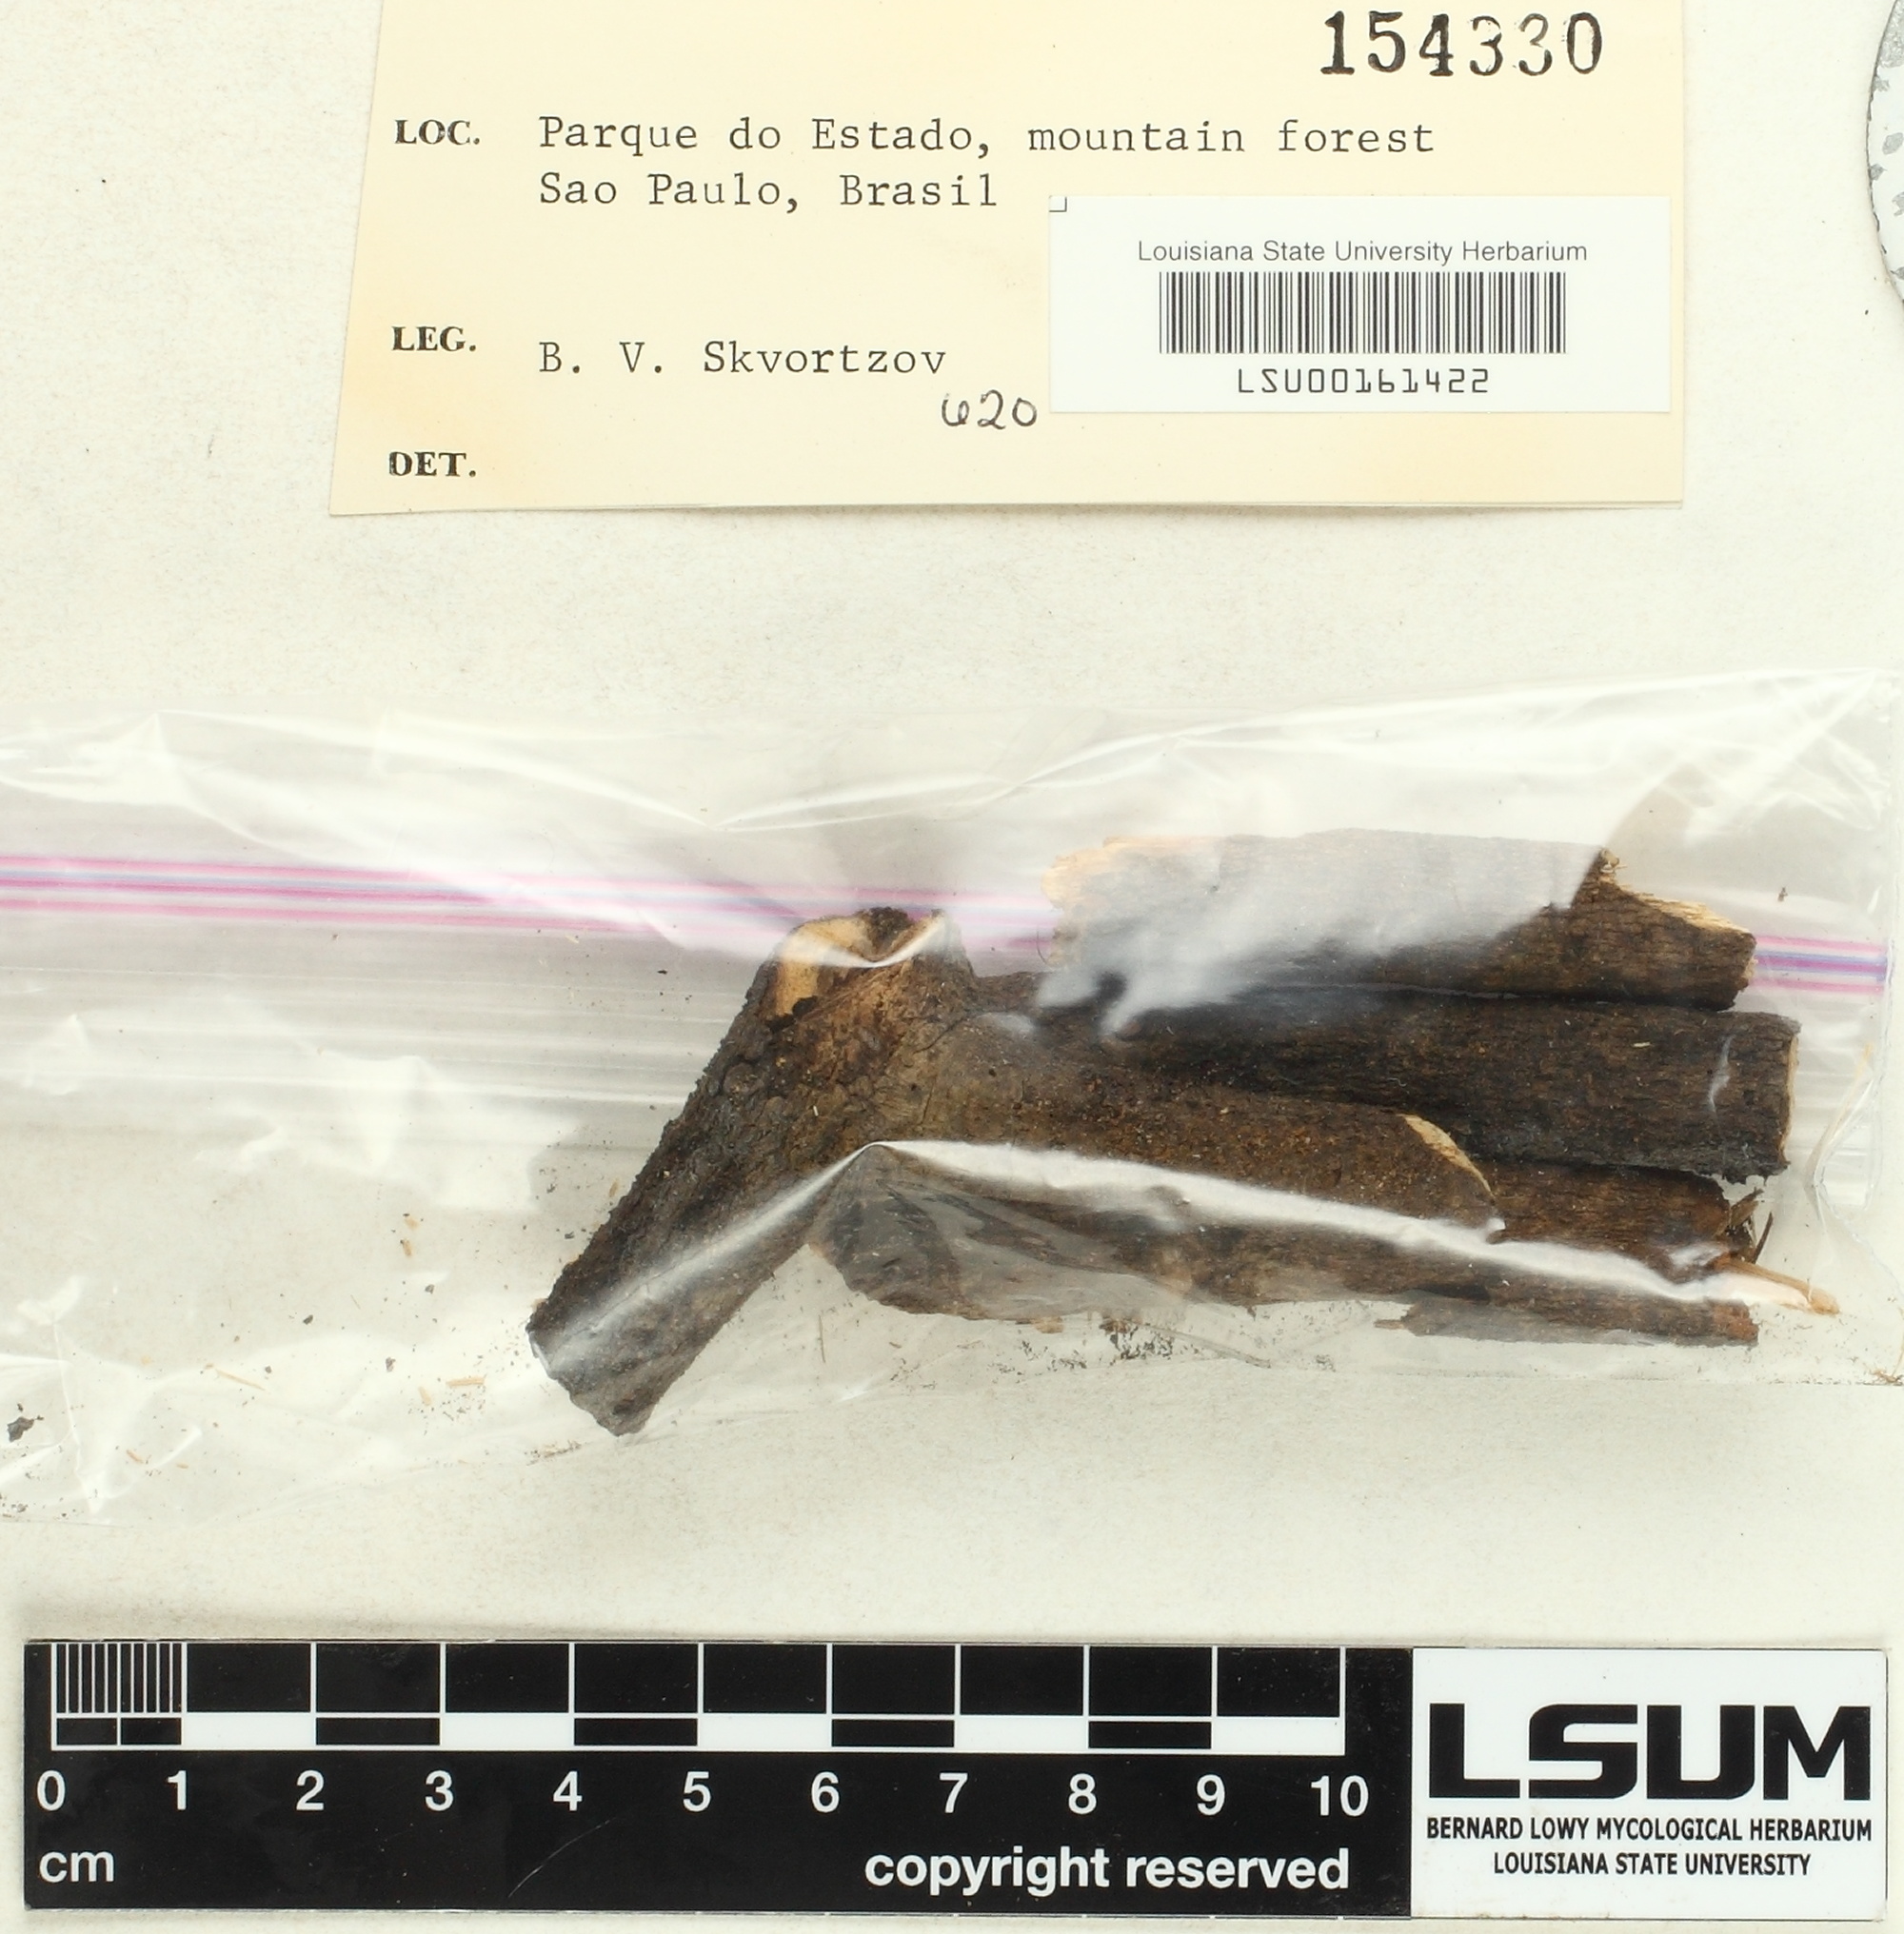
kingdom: Fungi
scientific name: Fungi
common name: Fungi
